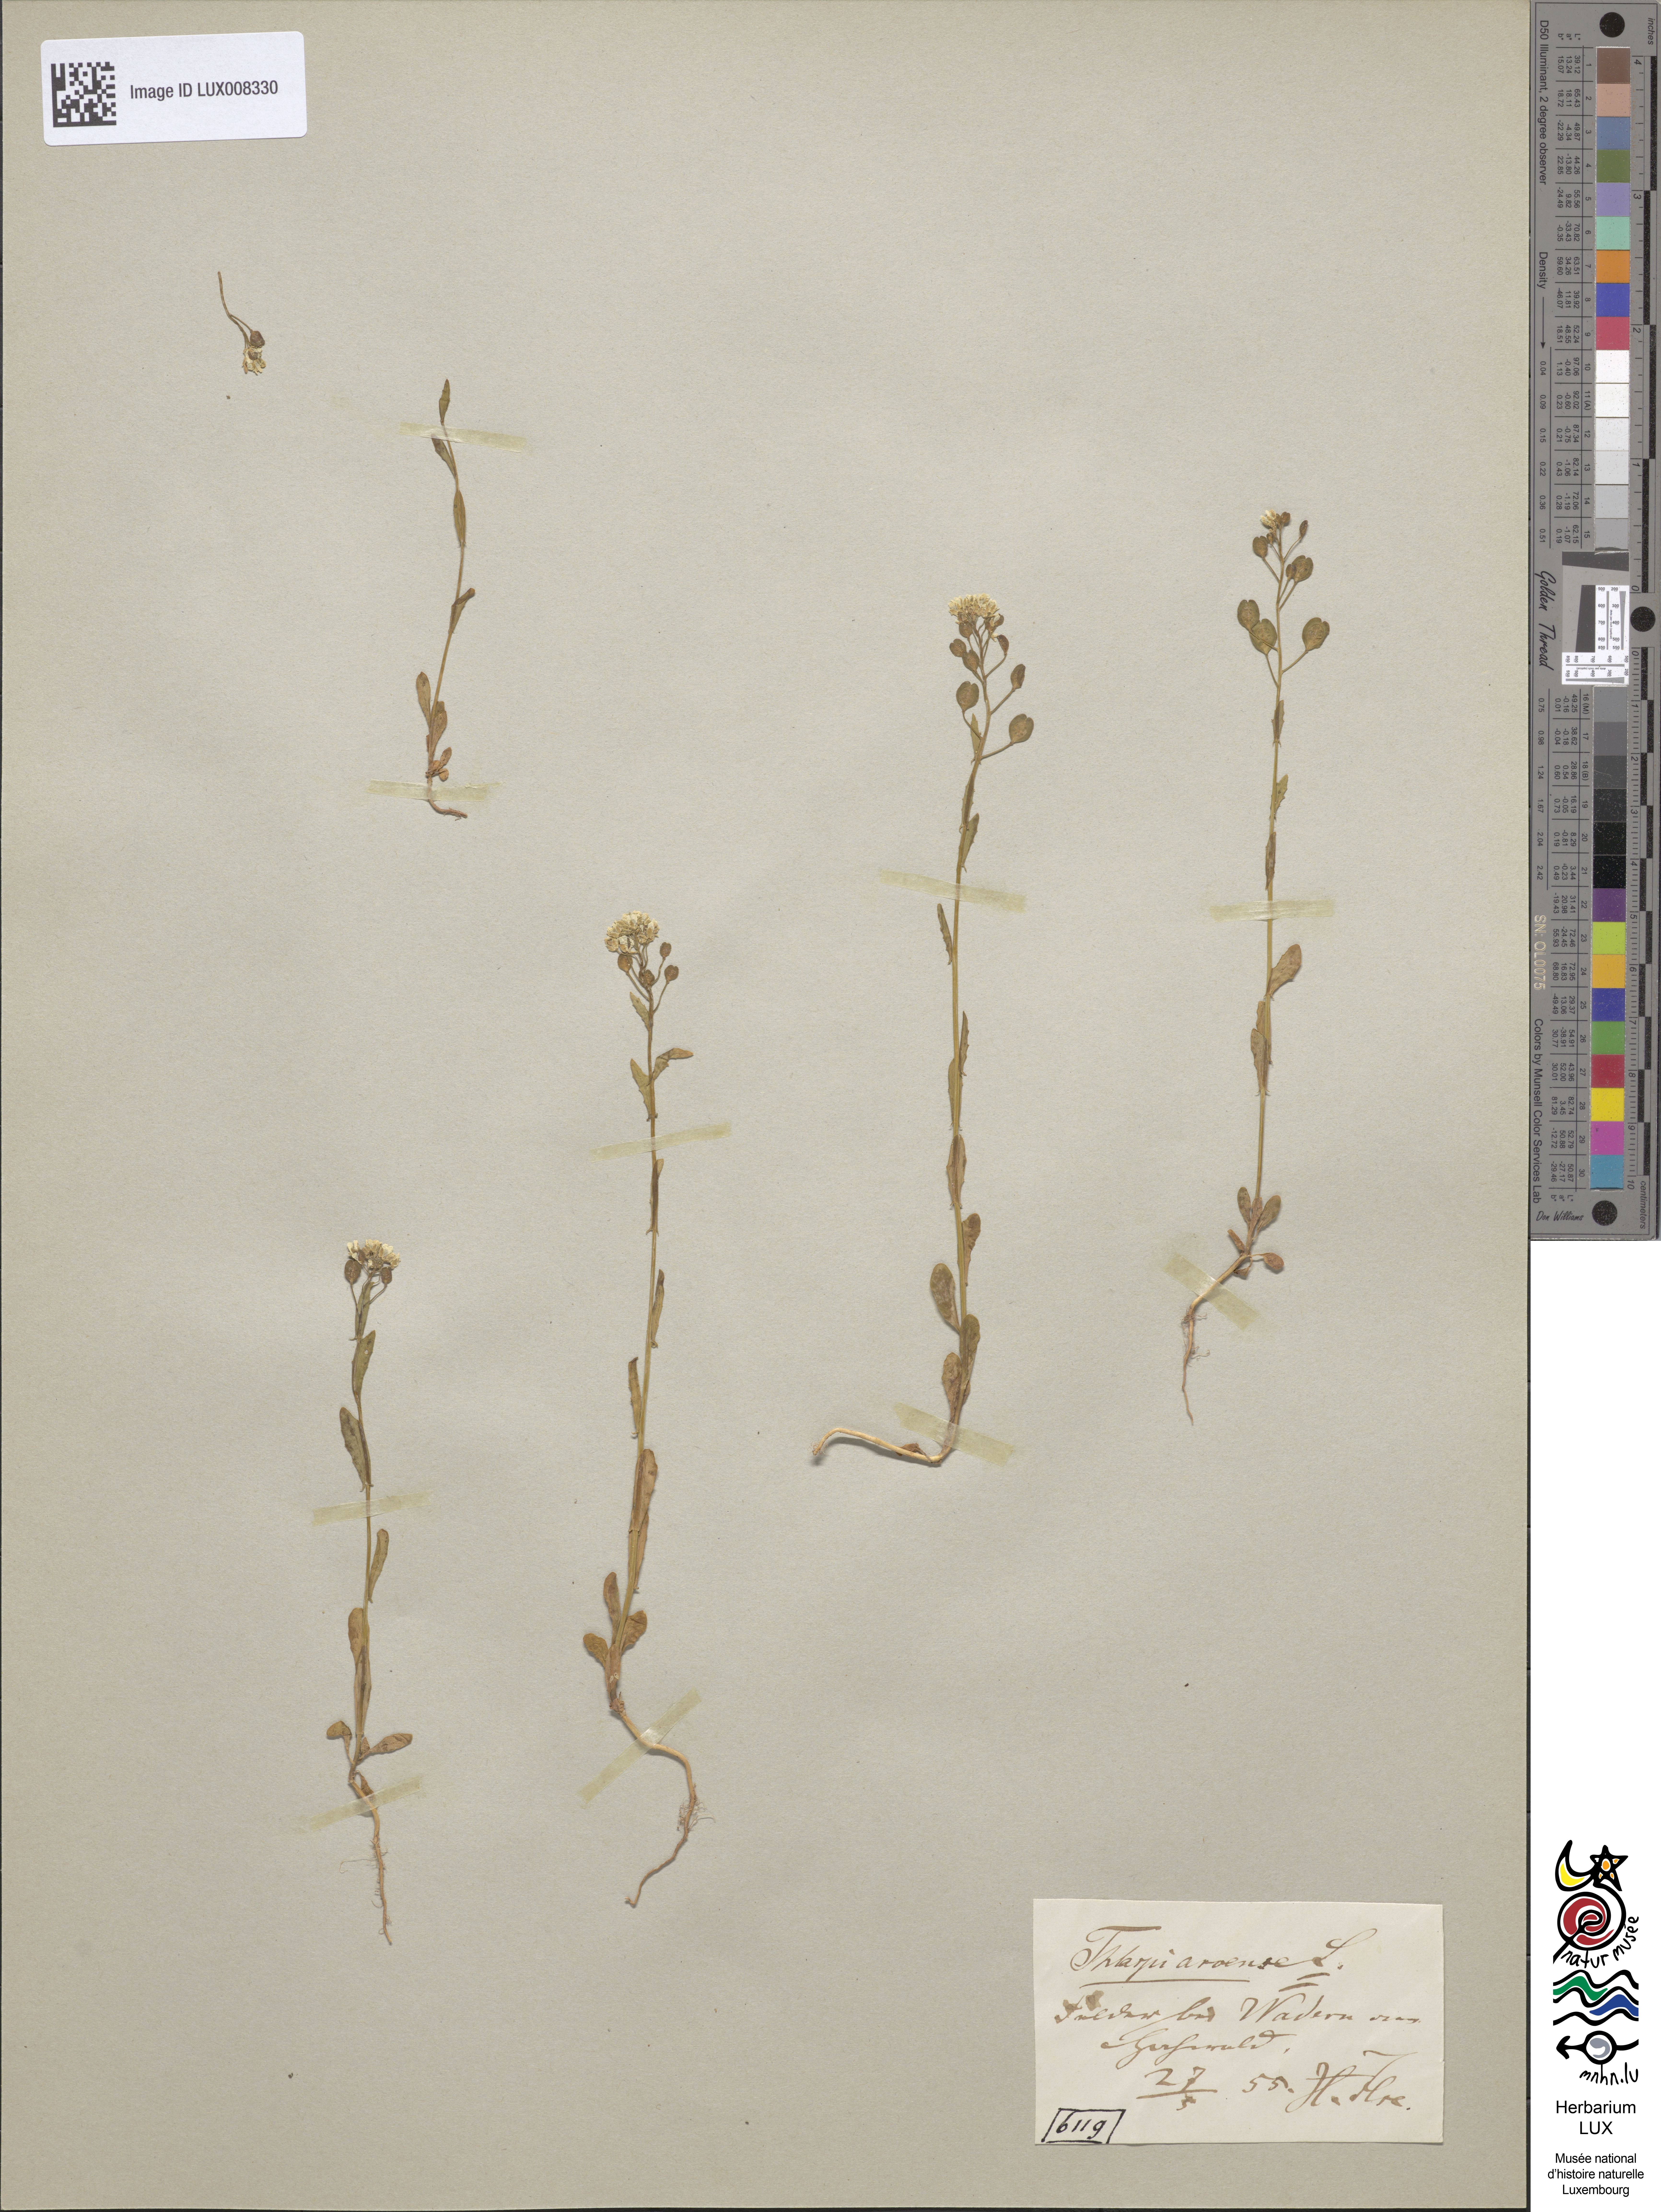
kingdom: Plantae
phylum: Tracheophyta
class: Magnoliopsida
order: Brassicales
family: Brassicaceae
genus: Thlaspi
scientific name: Thlaspi arvense
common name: Field pennycress
